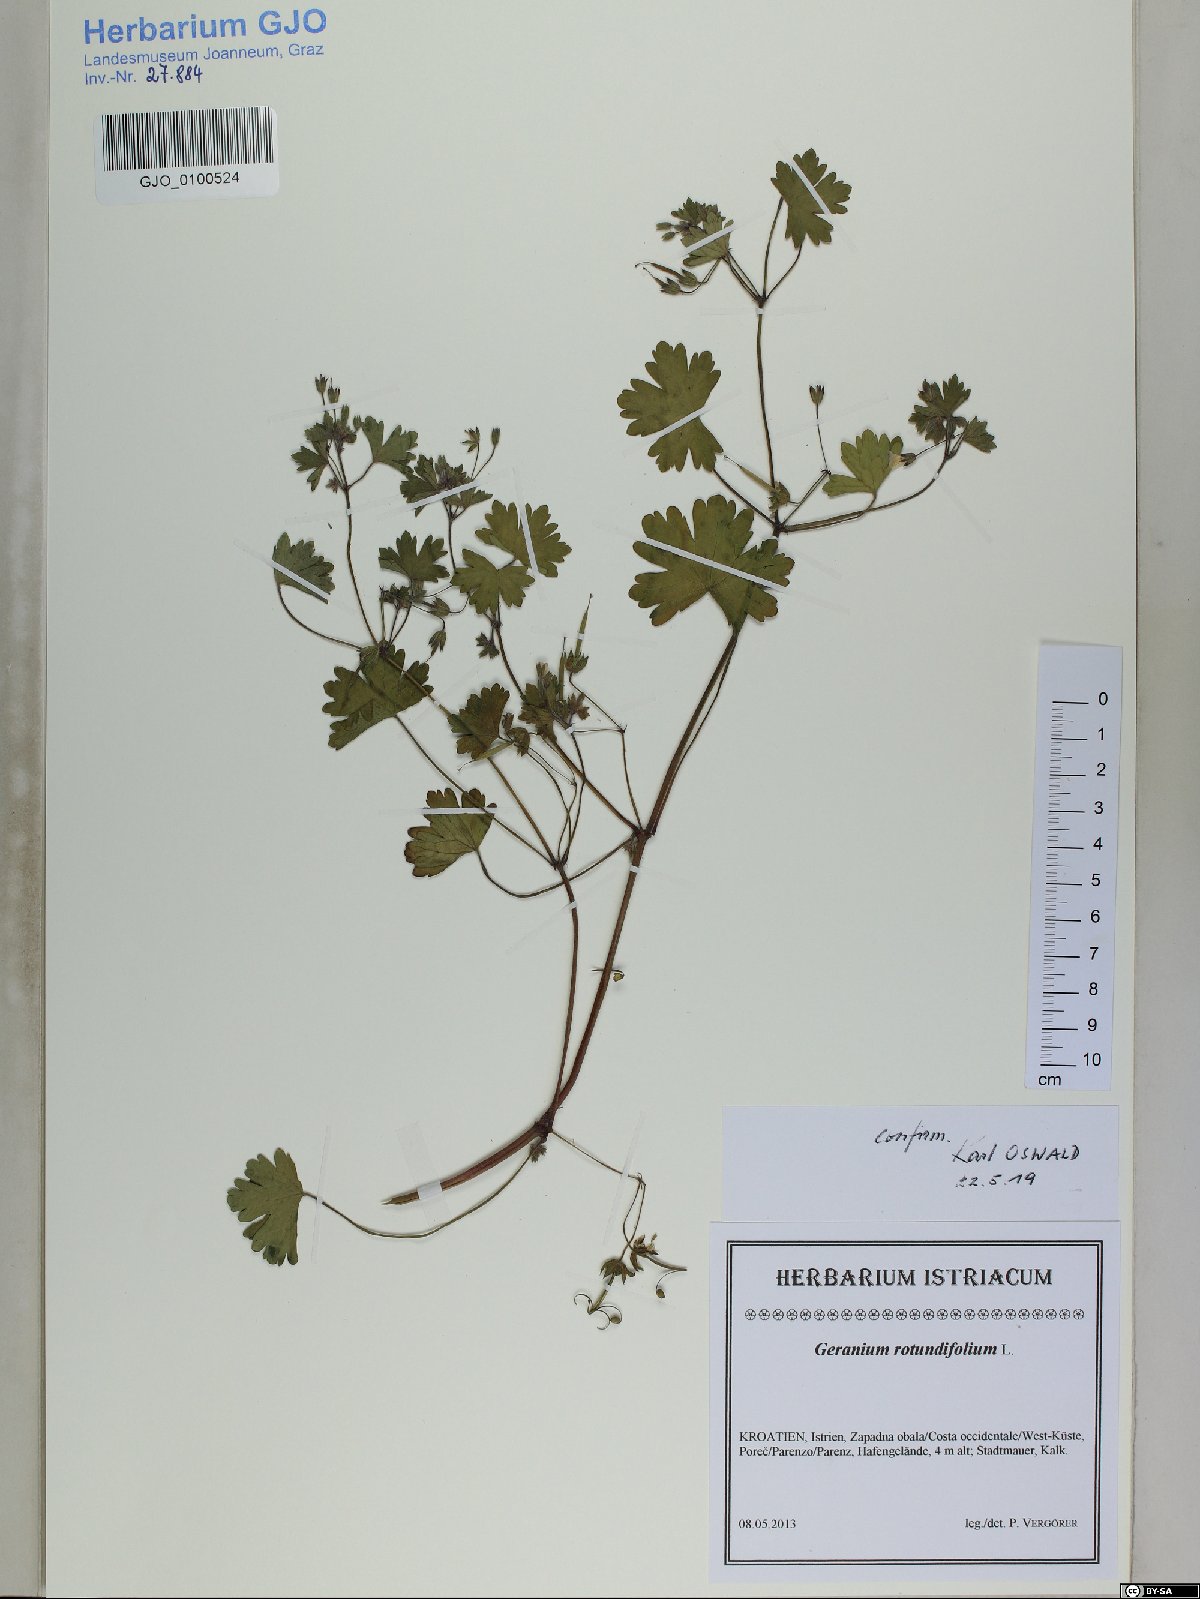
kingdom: Plantae
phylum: Tracheophyta
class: Magnoliopsida
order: Geraniales
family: Geraniaceae
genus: Geranium
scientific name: Geranium rotundifolium
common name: Round-leaved crane's-bill
